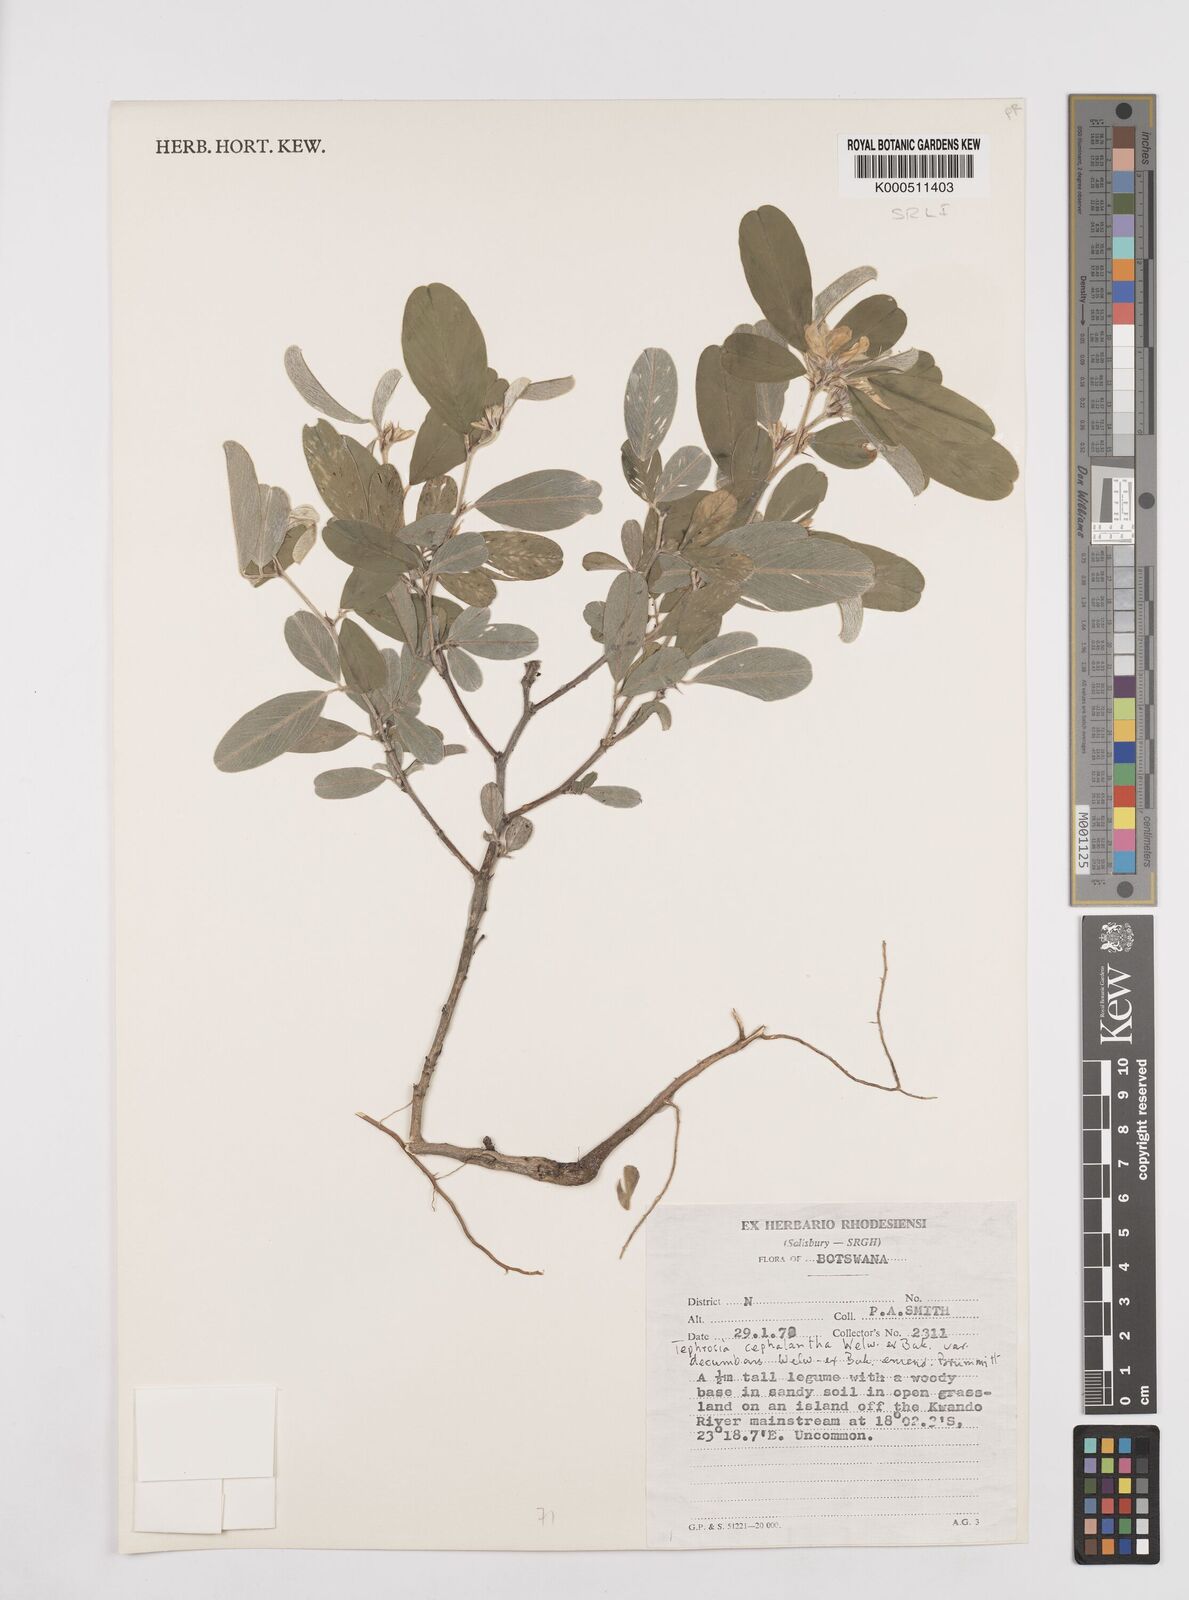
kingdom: Plantae
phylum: Tracheophyta
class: Magnoliopsida
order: Fabales
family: Fabaceae
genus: Tephrosia
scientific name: Tephrosia
